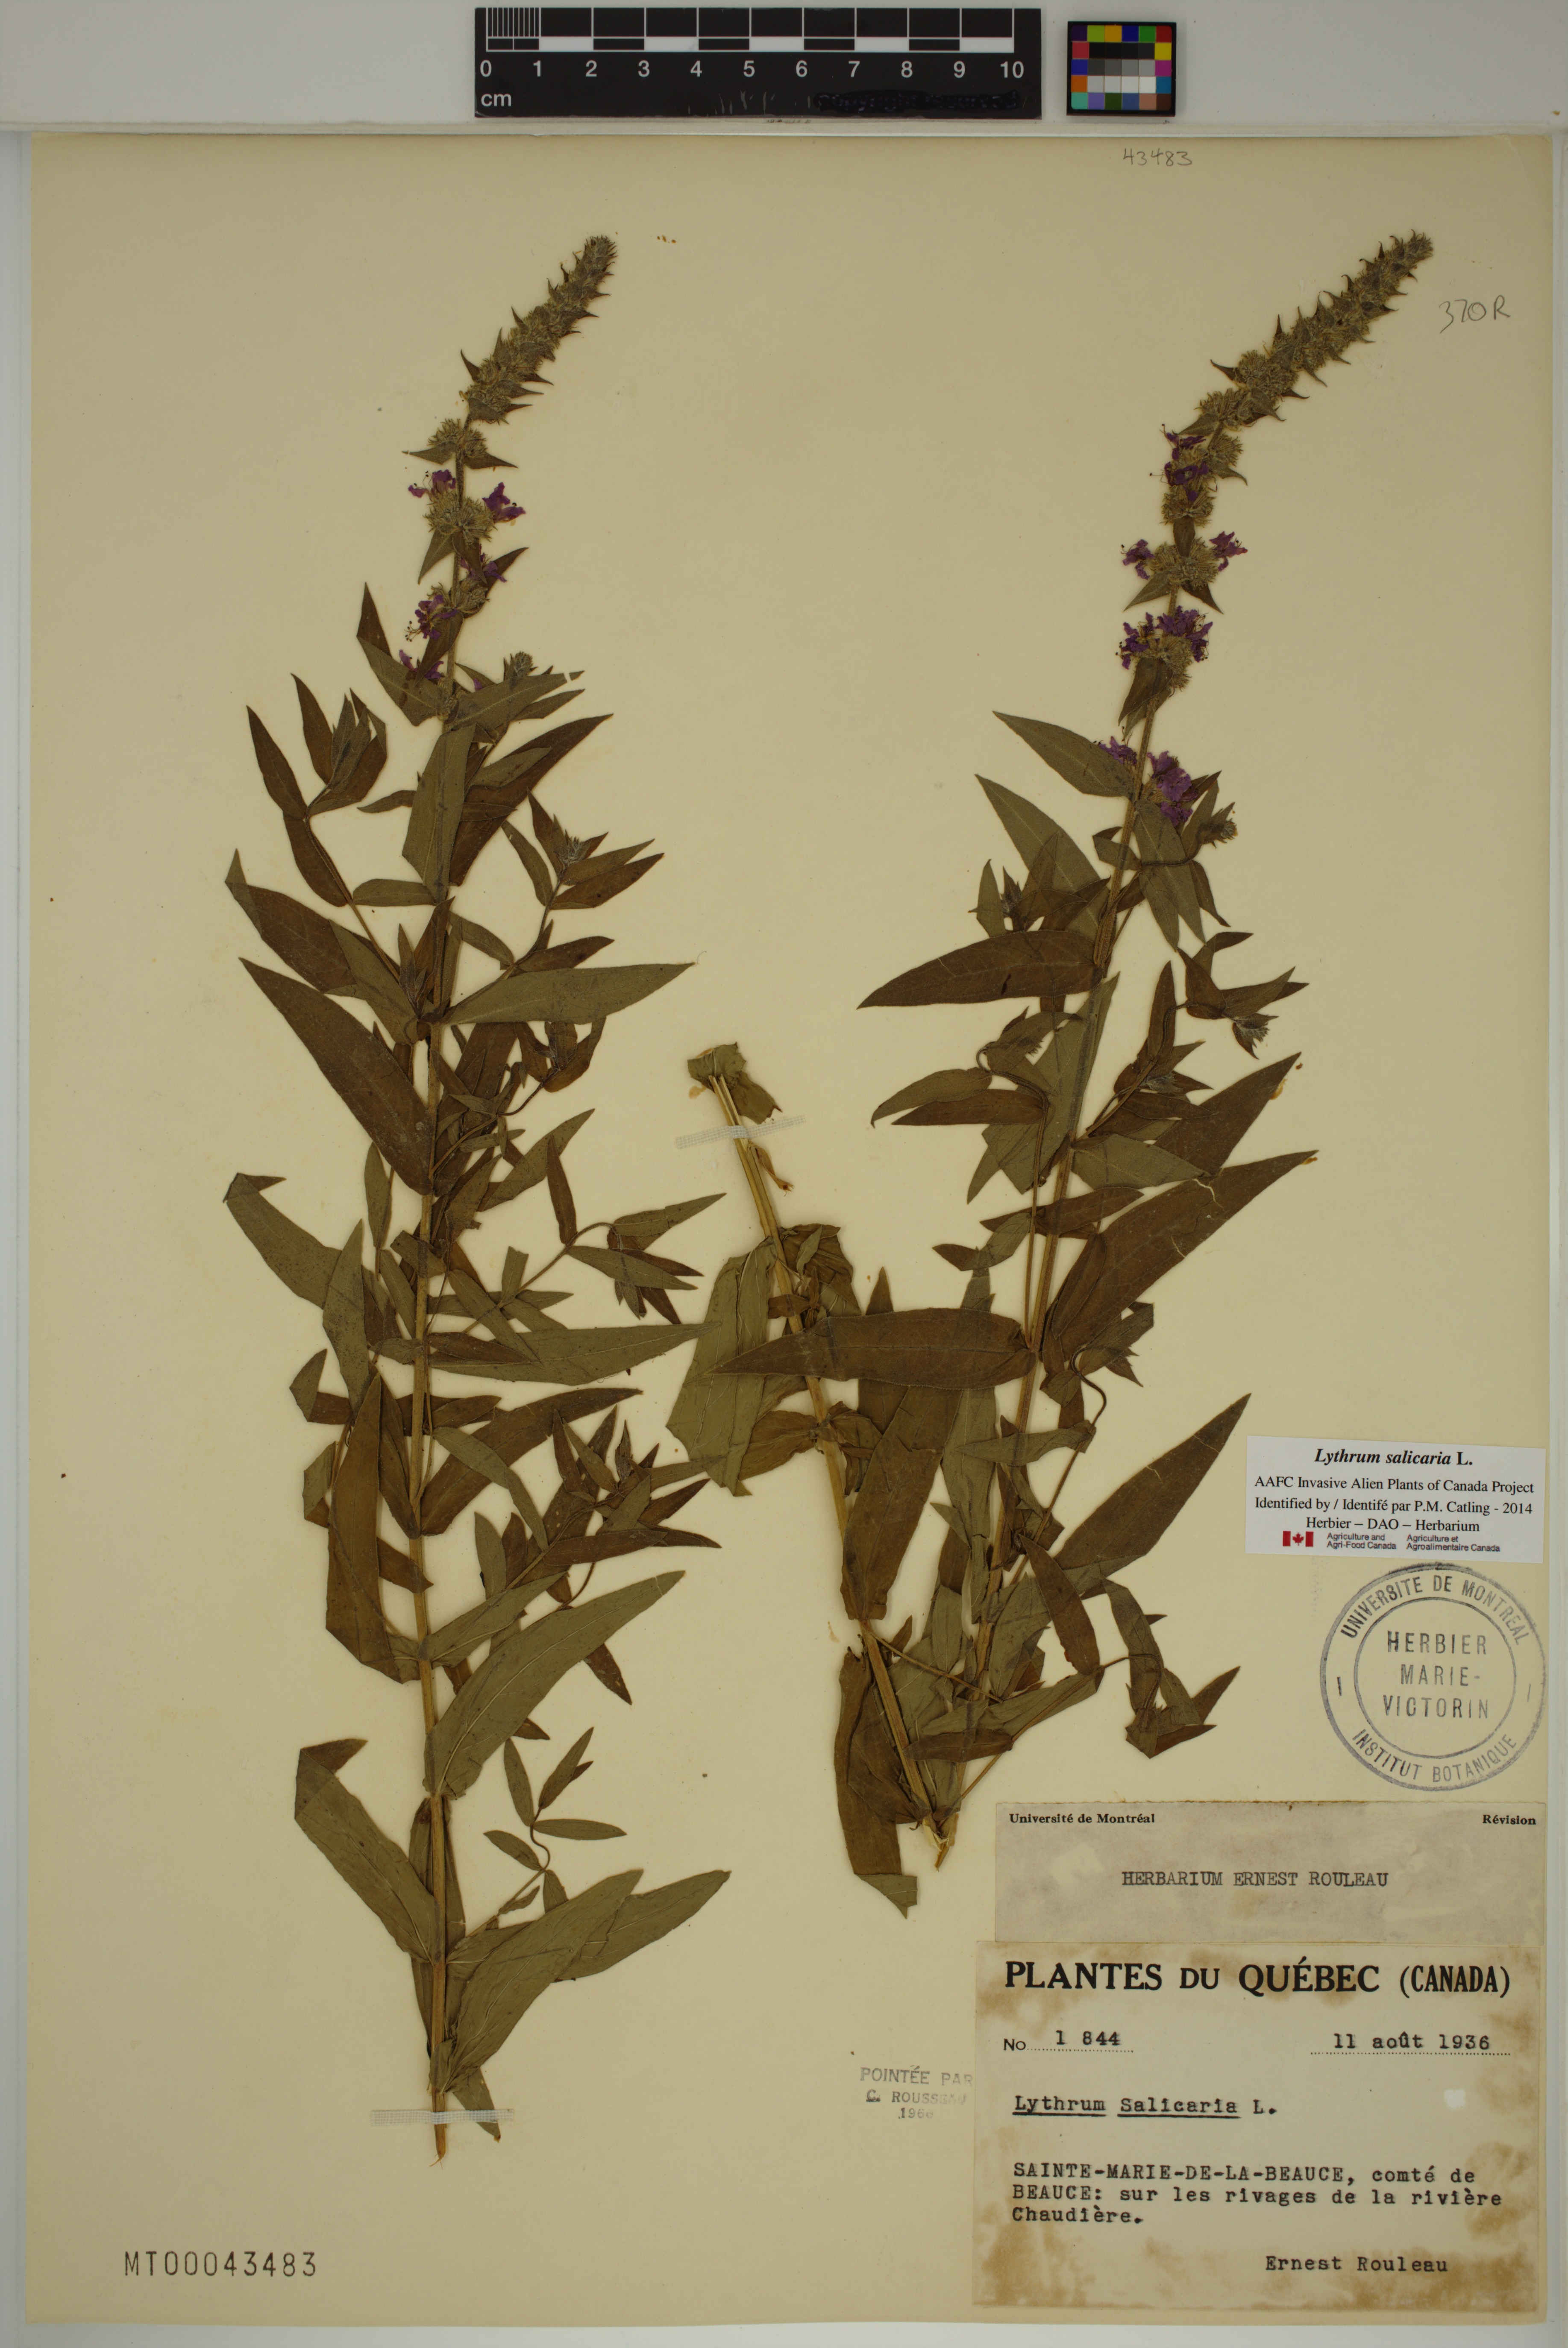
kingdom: Plantae
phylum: Tracheophyta
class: Magnoliopsida
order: Myrtales
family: Lythraceae
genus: Lythrum
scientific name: Lythrum salicaria
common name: Purple loosestrife
